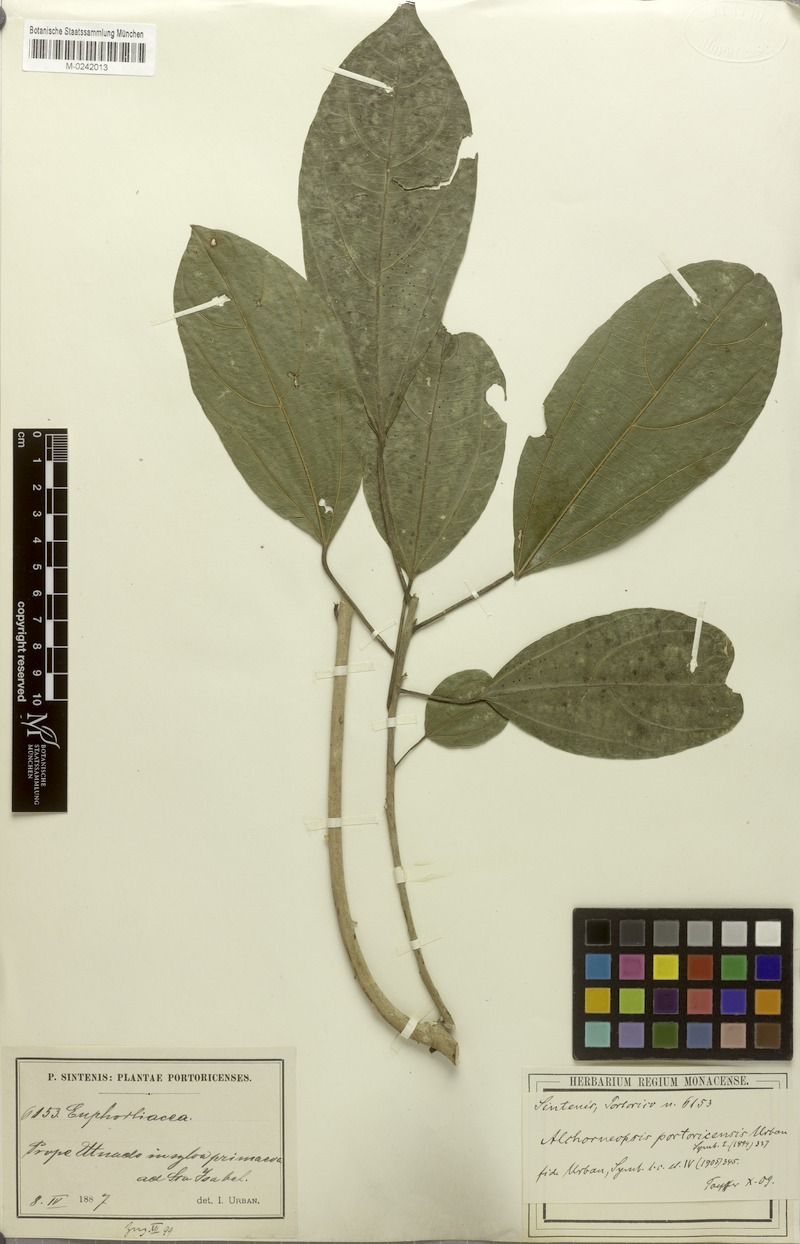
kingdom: Plantae
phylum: Tracheophyta
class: Magnoliopsida
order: Malpighiales
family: Euphorbiaceae
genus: Alchorneopsis
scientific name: Alchorneopsis portoricensis
